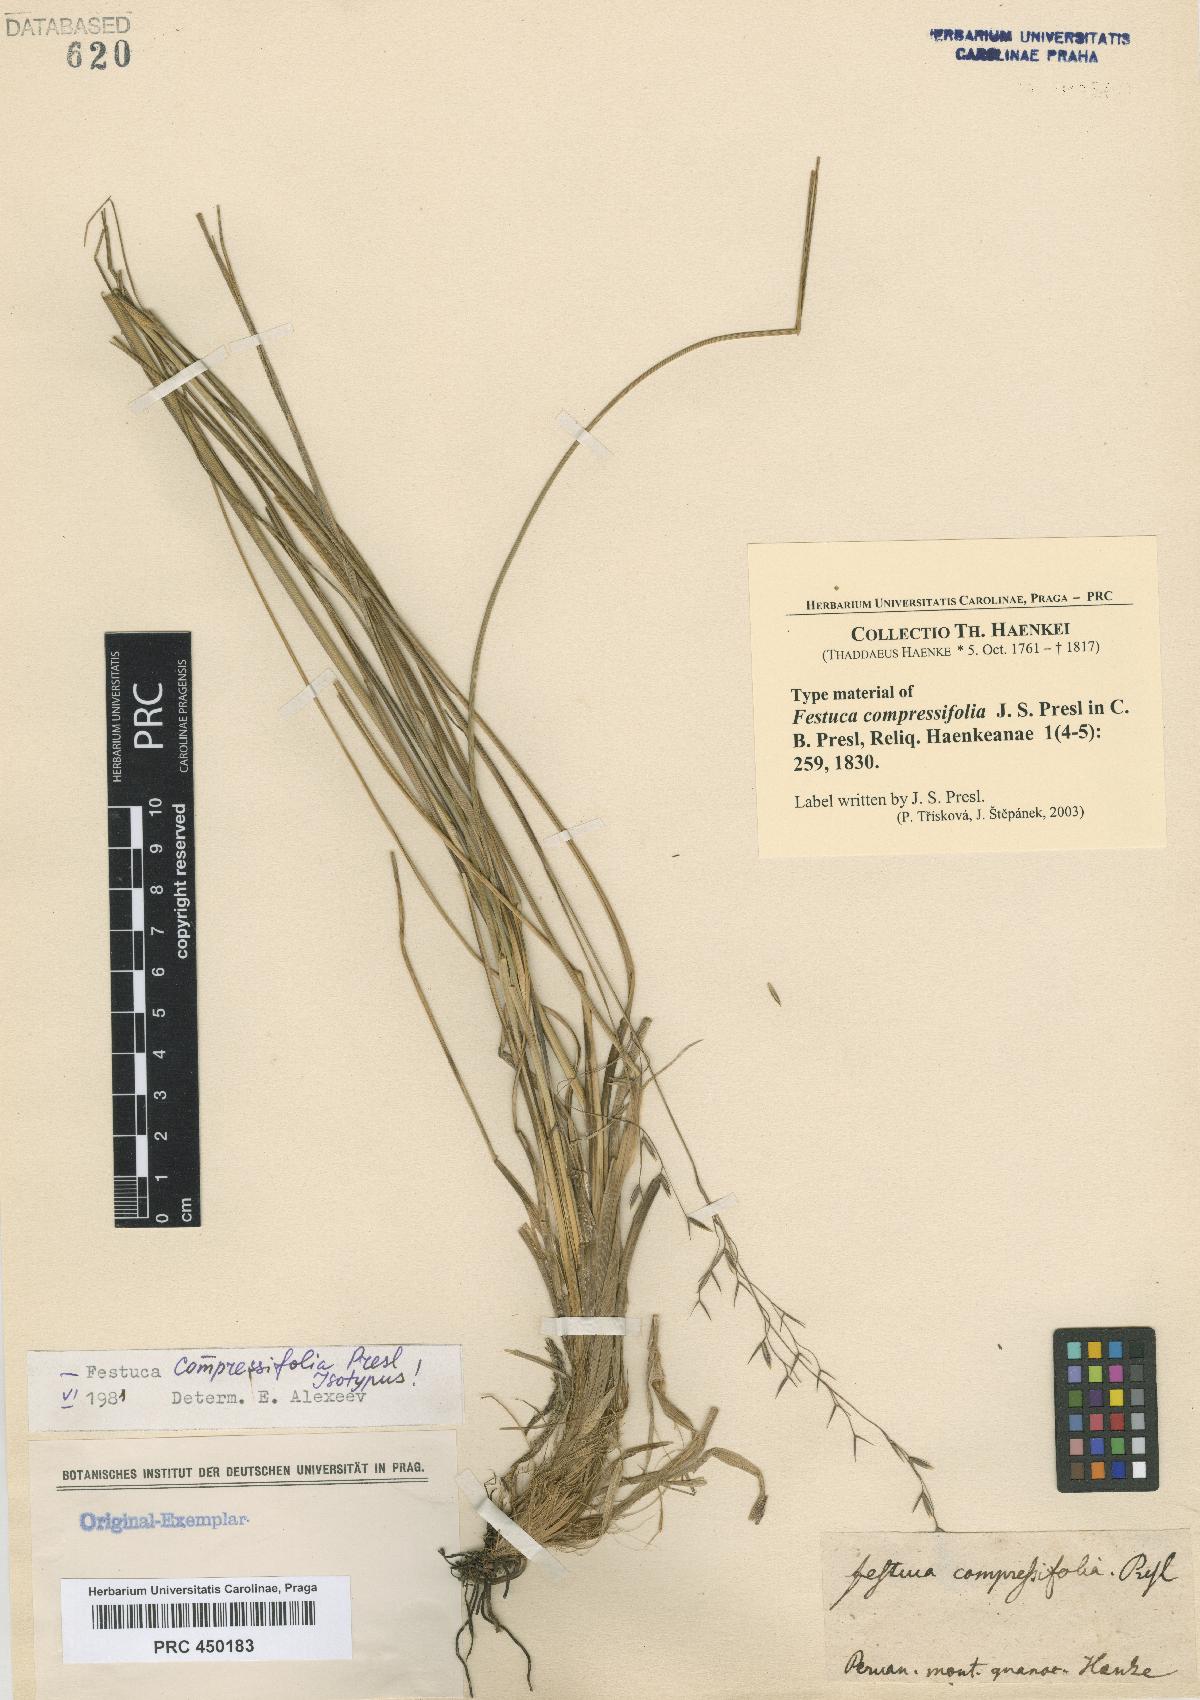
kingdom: Plantae
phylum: Tracheophyta
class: Liliopsida
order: Poales
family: Poaceae
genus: Festuca
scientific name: Festuca compressifolia
